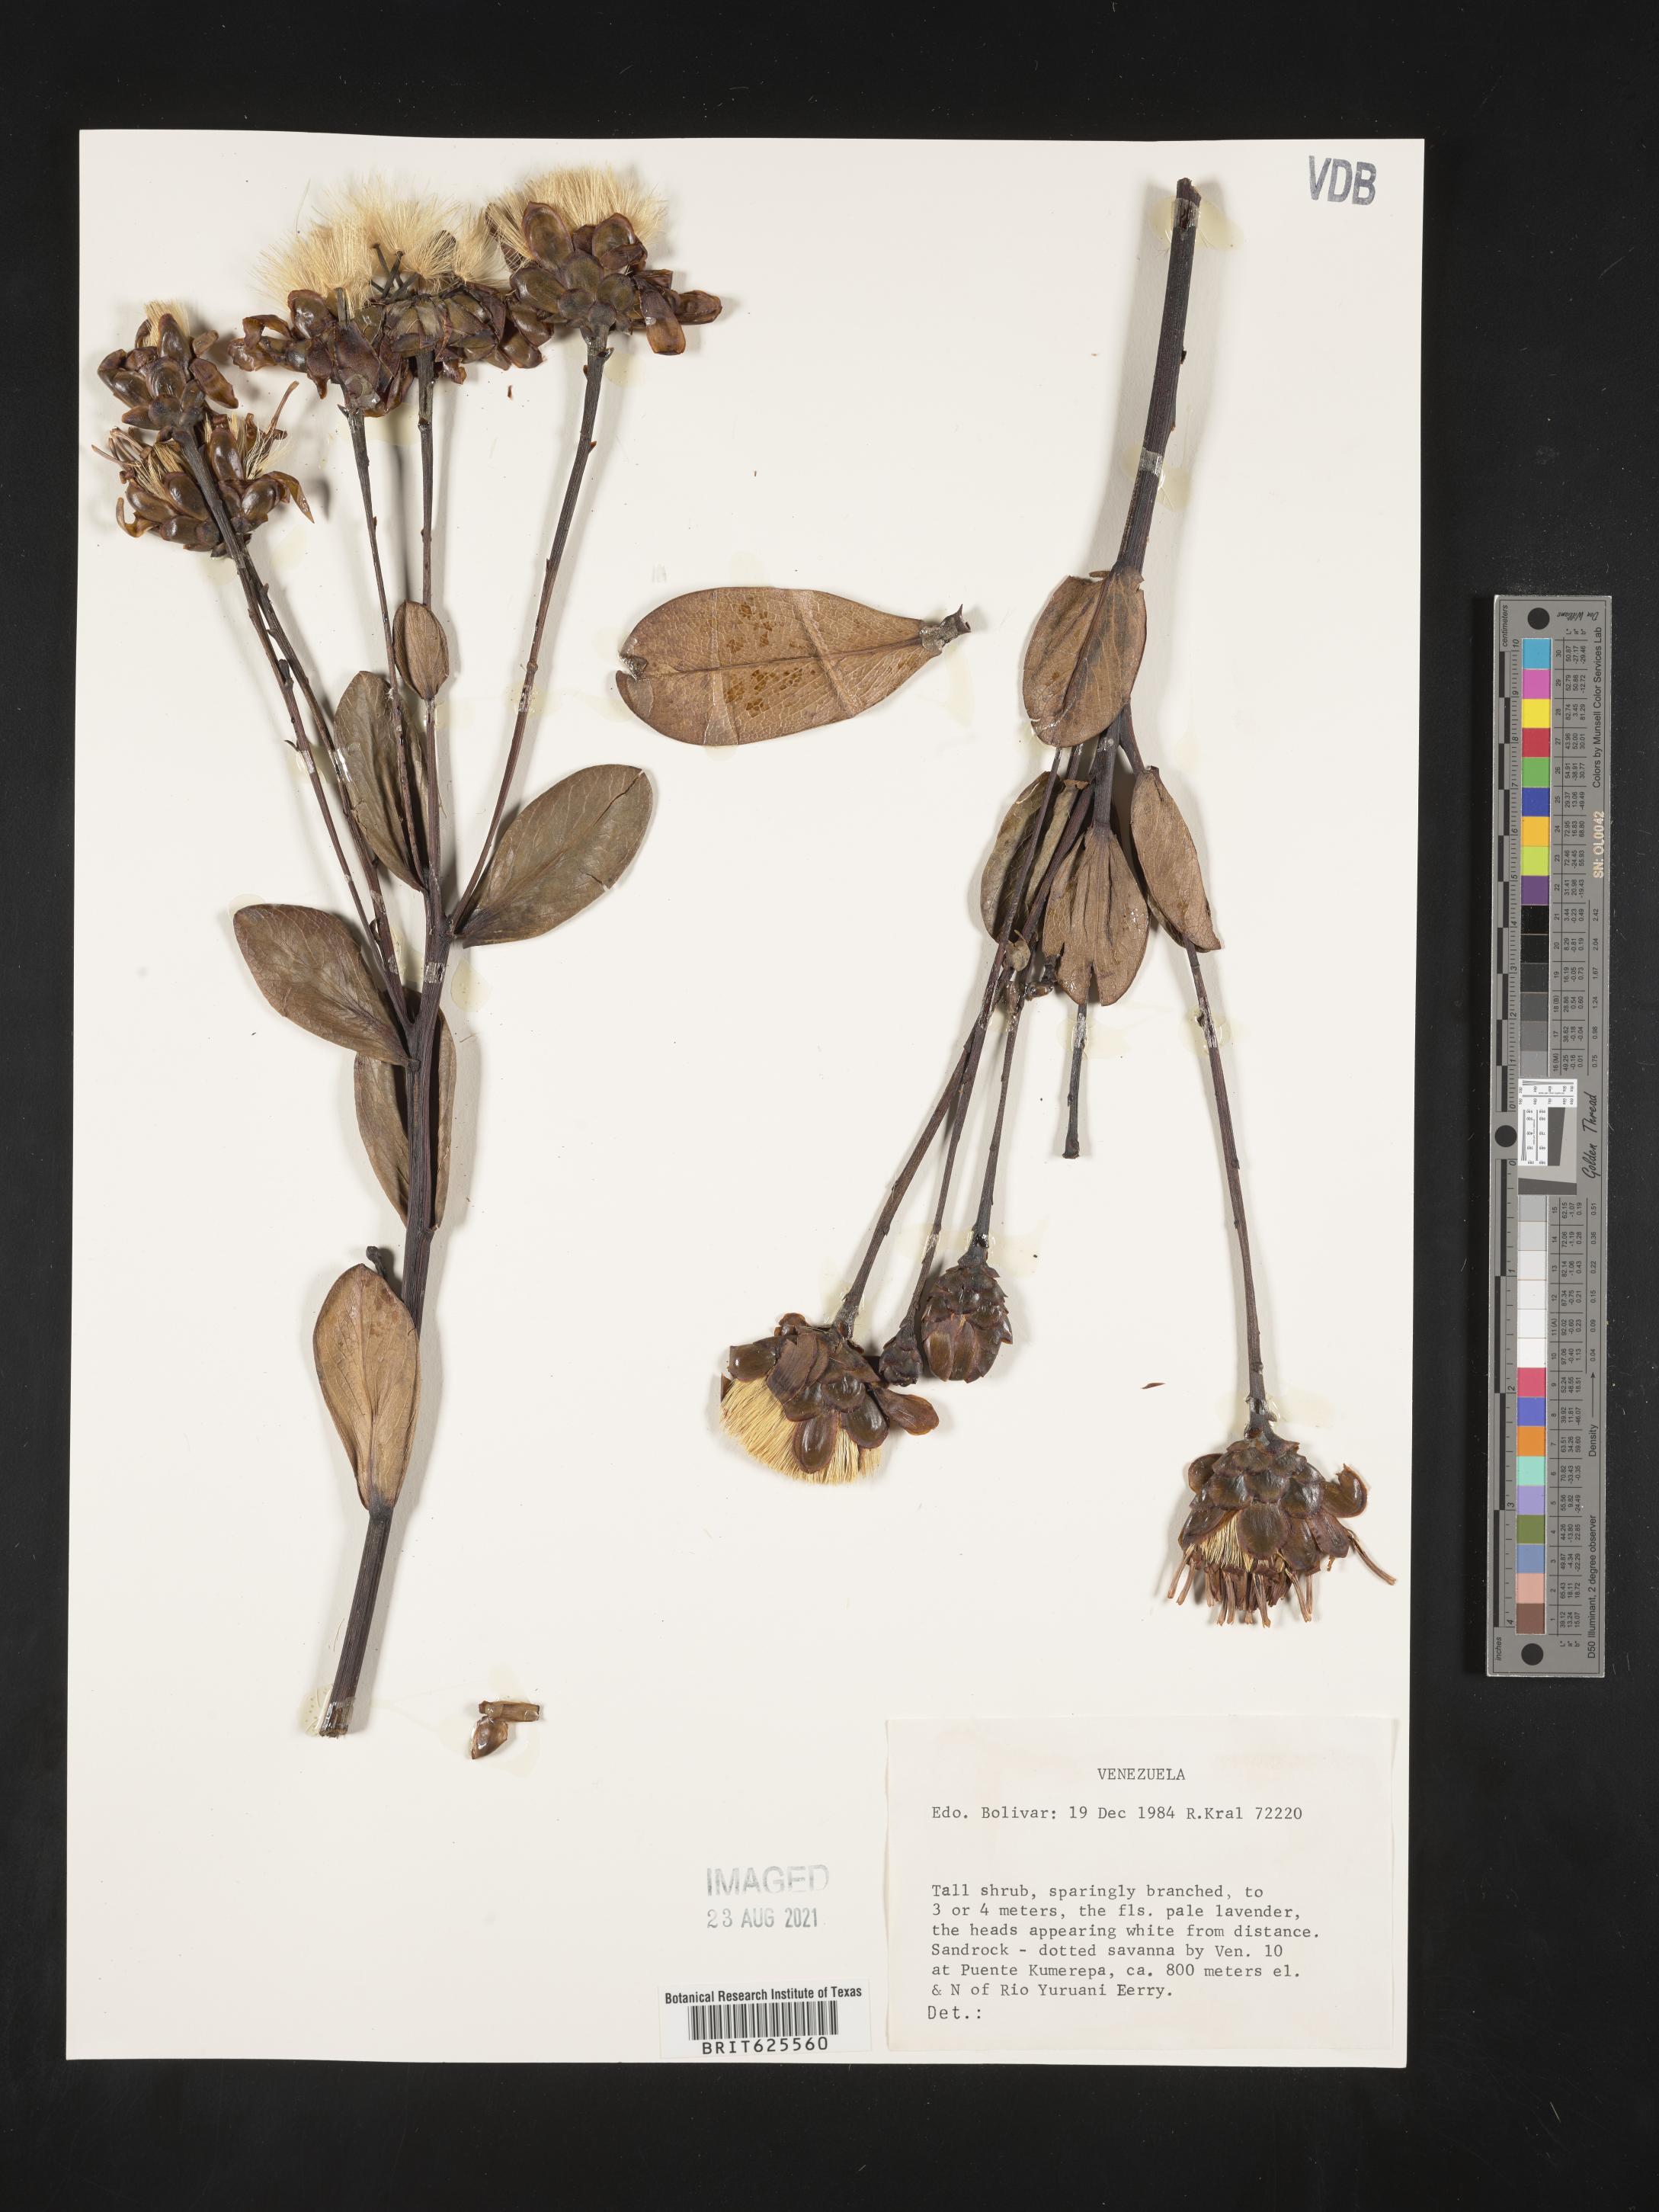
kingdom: Plantae
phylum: Tracheophyta
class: Magnoliopsida
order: Asterales
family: Asteraceae
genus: Gongylolepis
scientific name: Gongylolepis
